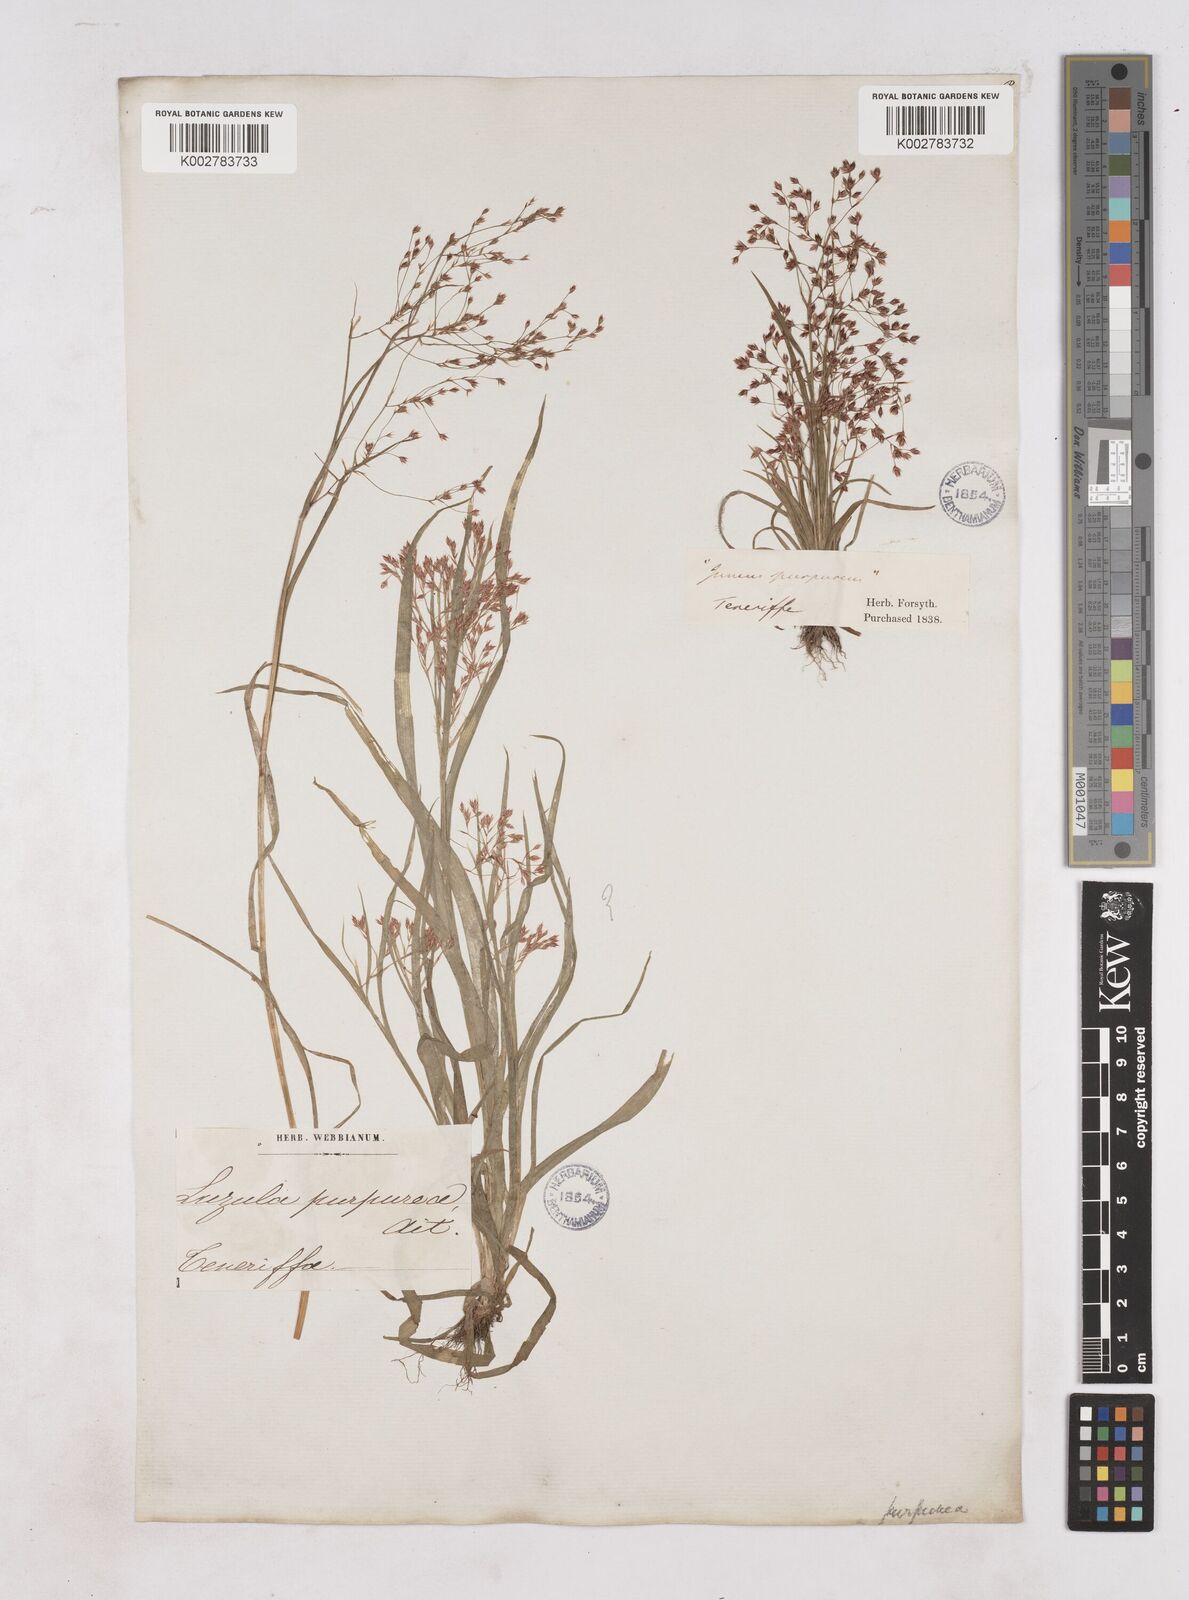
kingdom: Plantae
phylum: Tracheophyta
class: Liliopsida
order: Poales
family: Juncaceae
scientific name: Juncaceae
